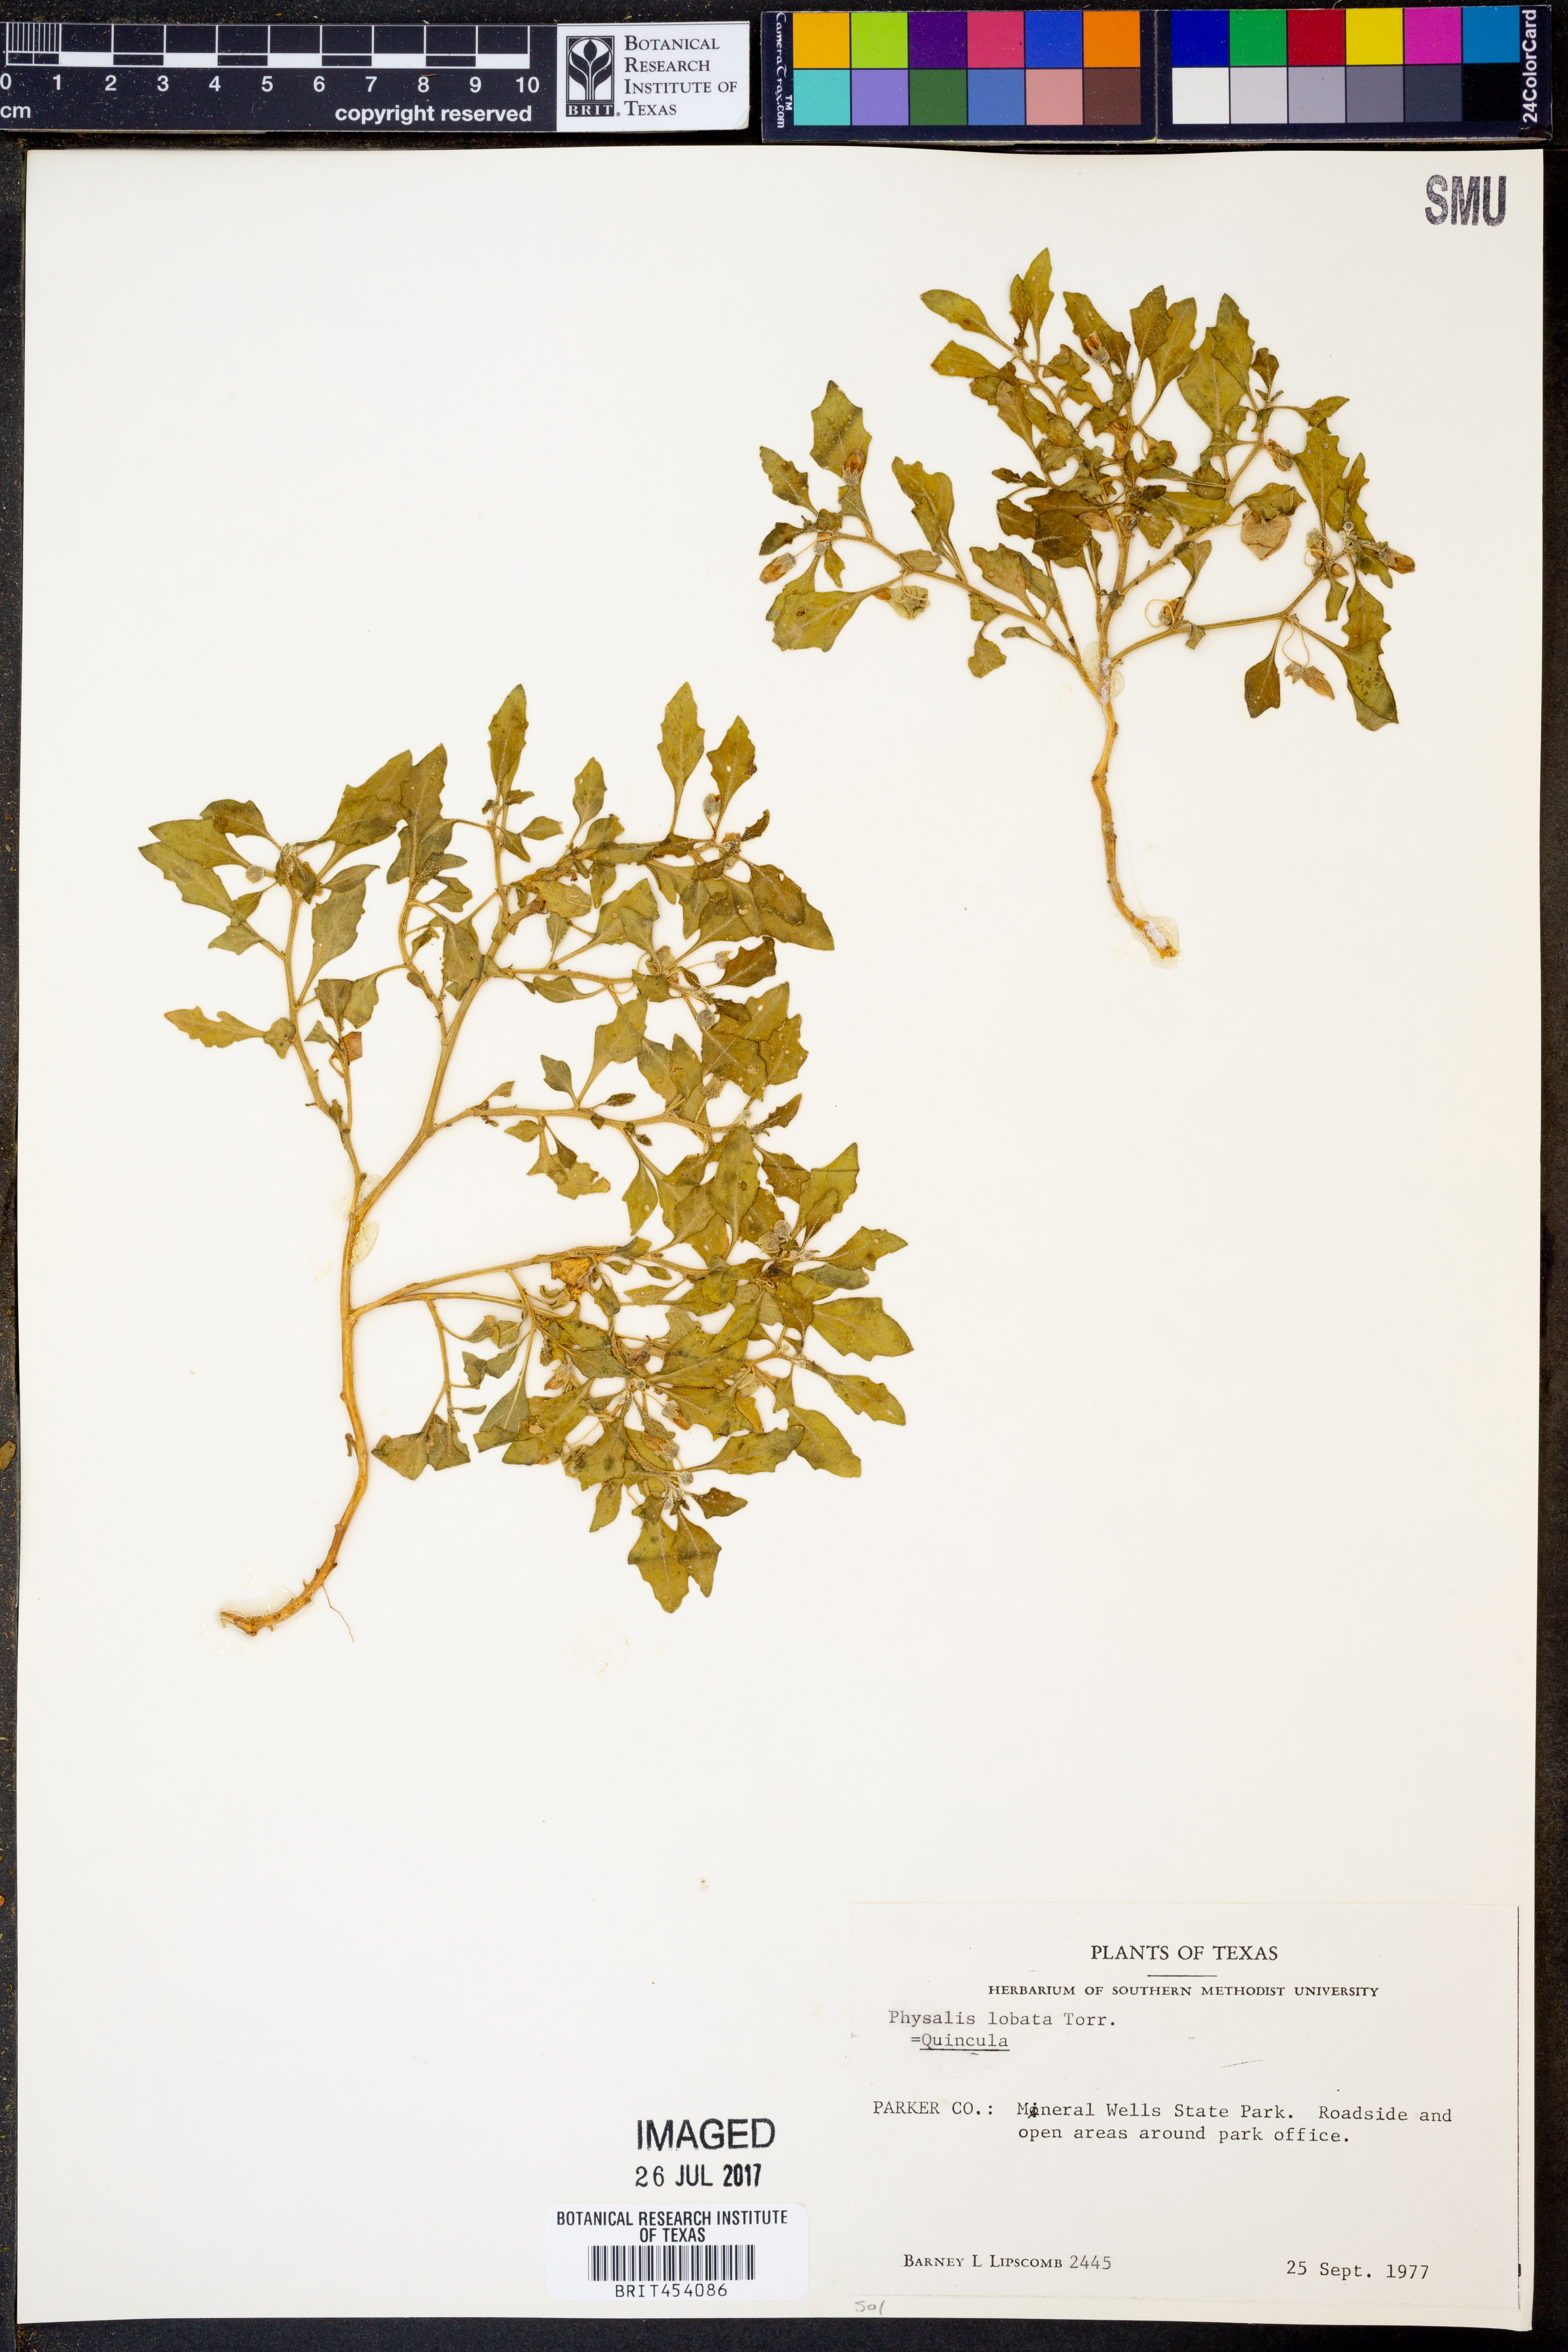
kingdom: Plantae
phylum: Tracheophyta
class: Magnoliopsida
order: Solanales
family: Solanaceae
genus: Quincula
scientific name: Quincula lobata
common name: Purple-ground-cherry
